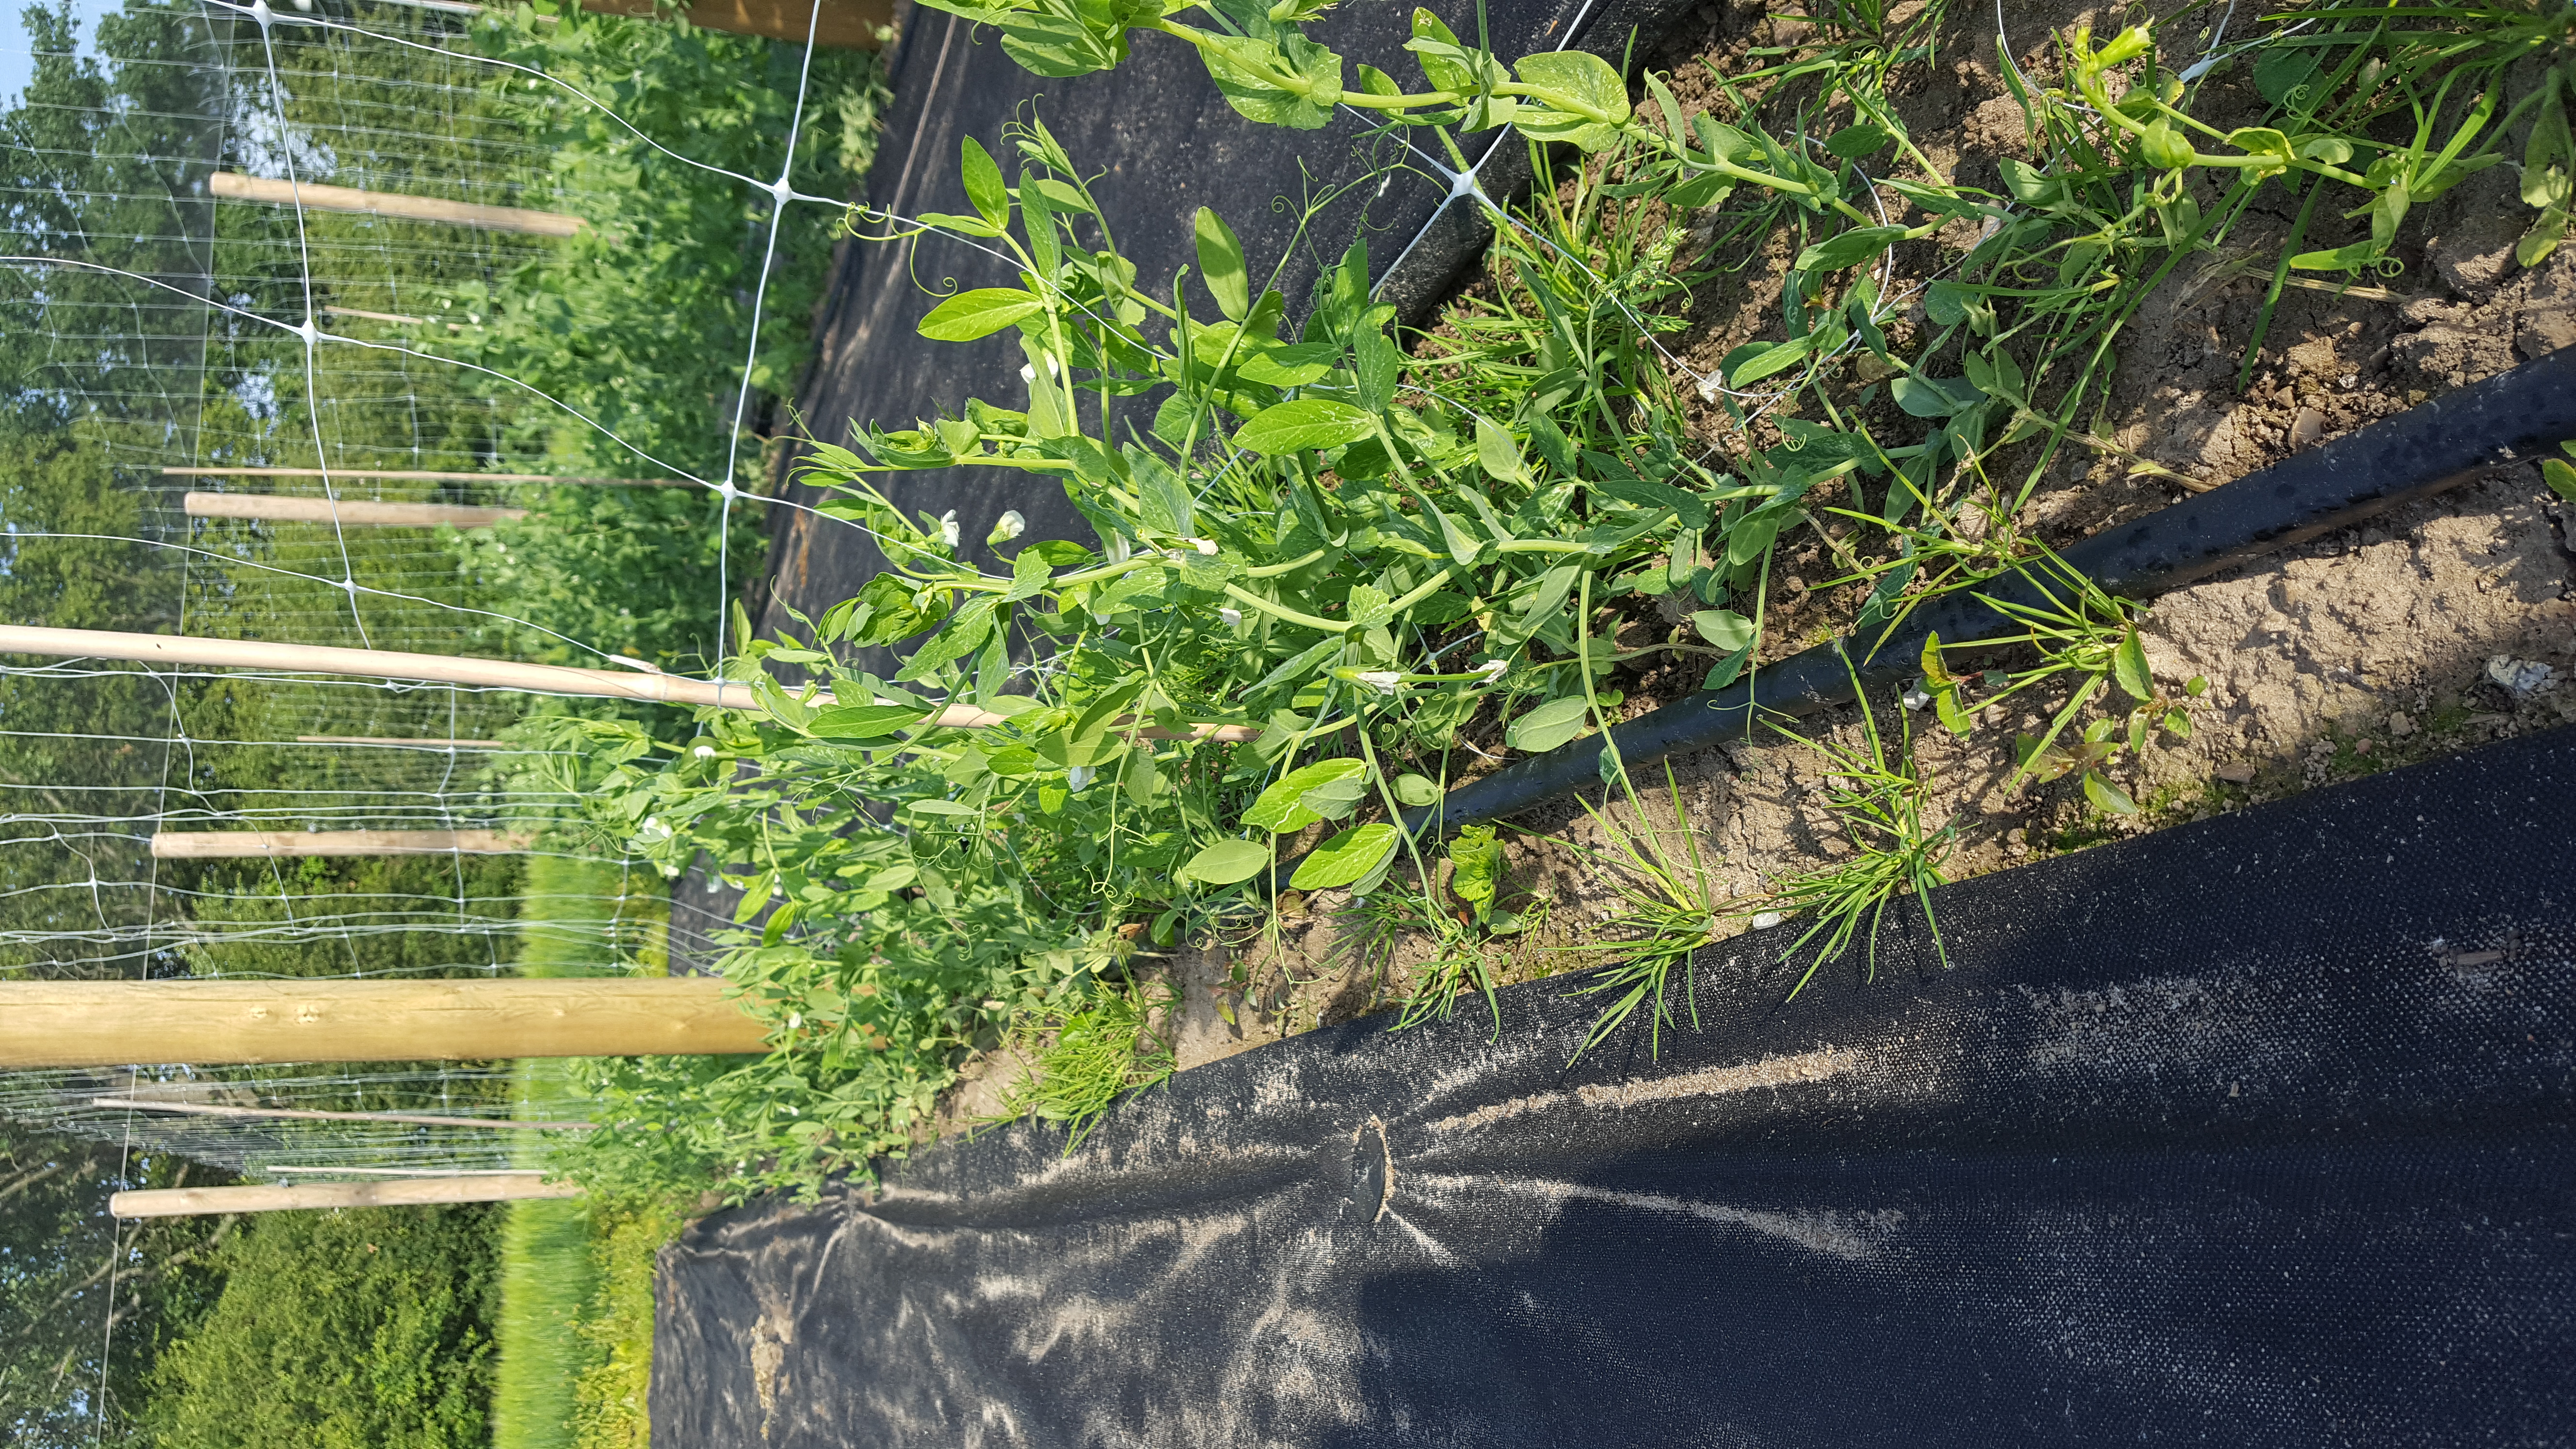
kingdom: Plantae
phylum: Tracheophyta
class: Magnoliopsida
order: Fabales
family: Fabaceae
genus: Lathyrus
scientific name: Lathyrus oleraceus
